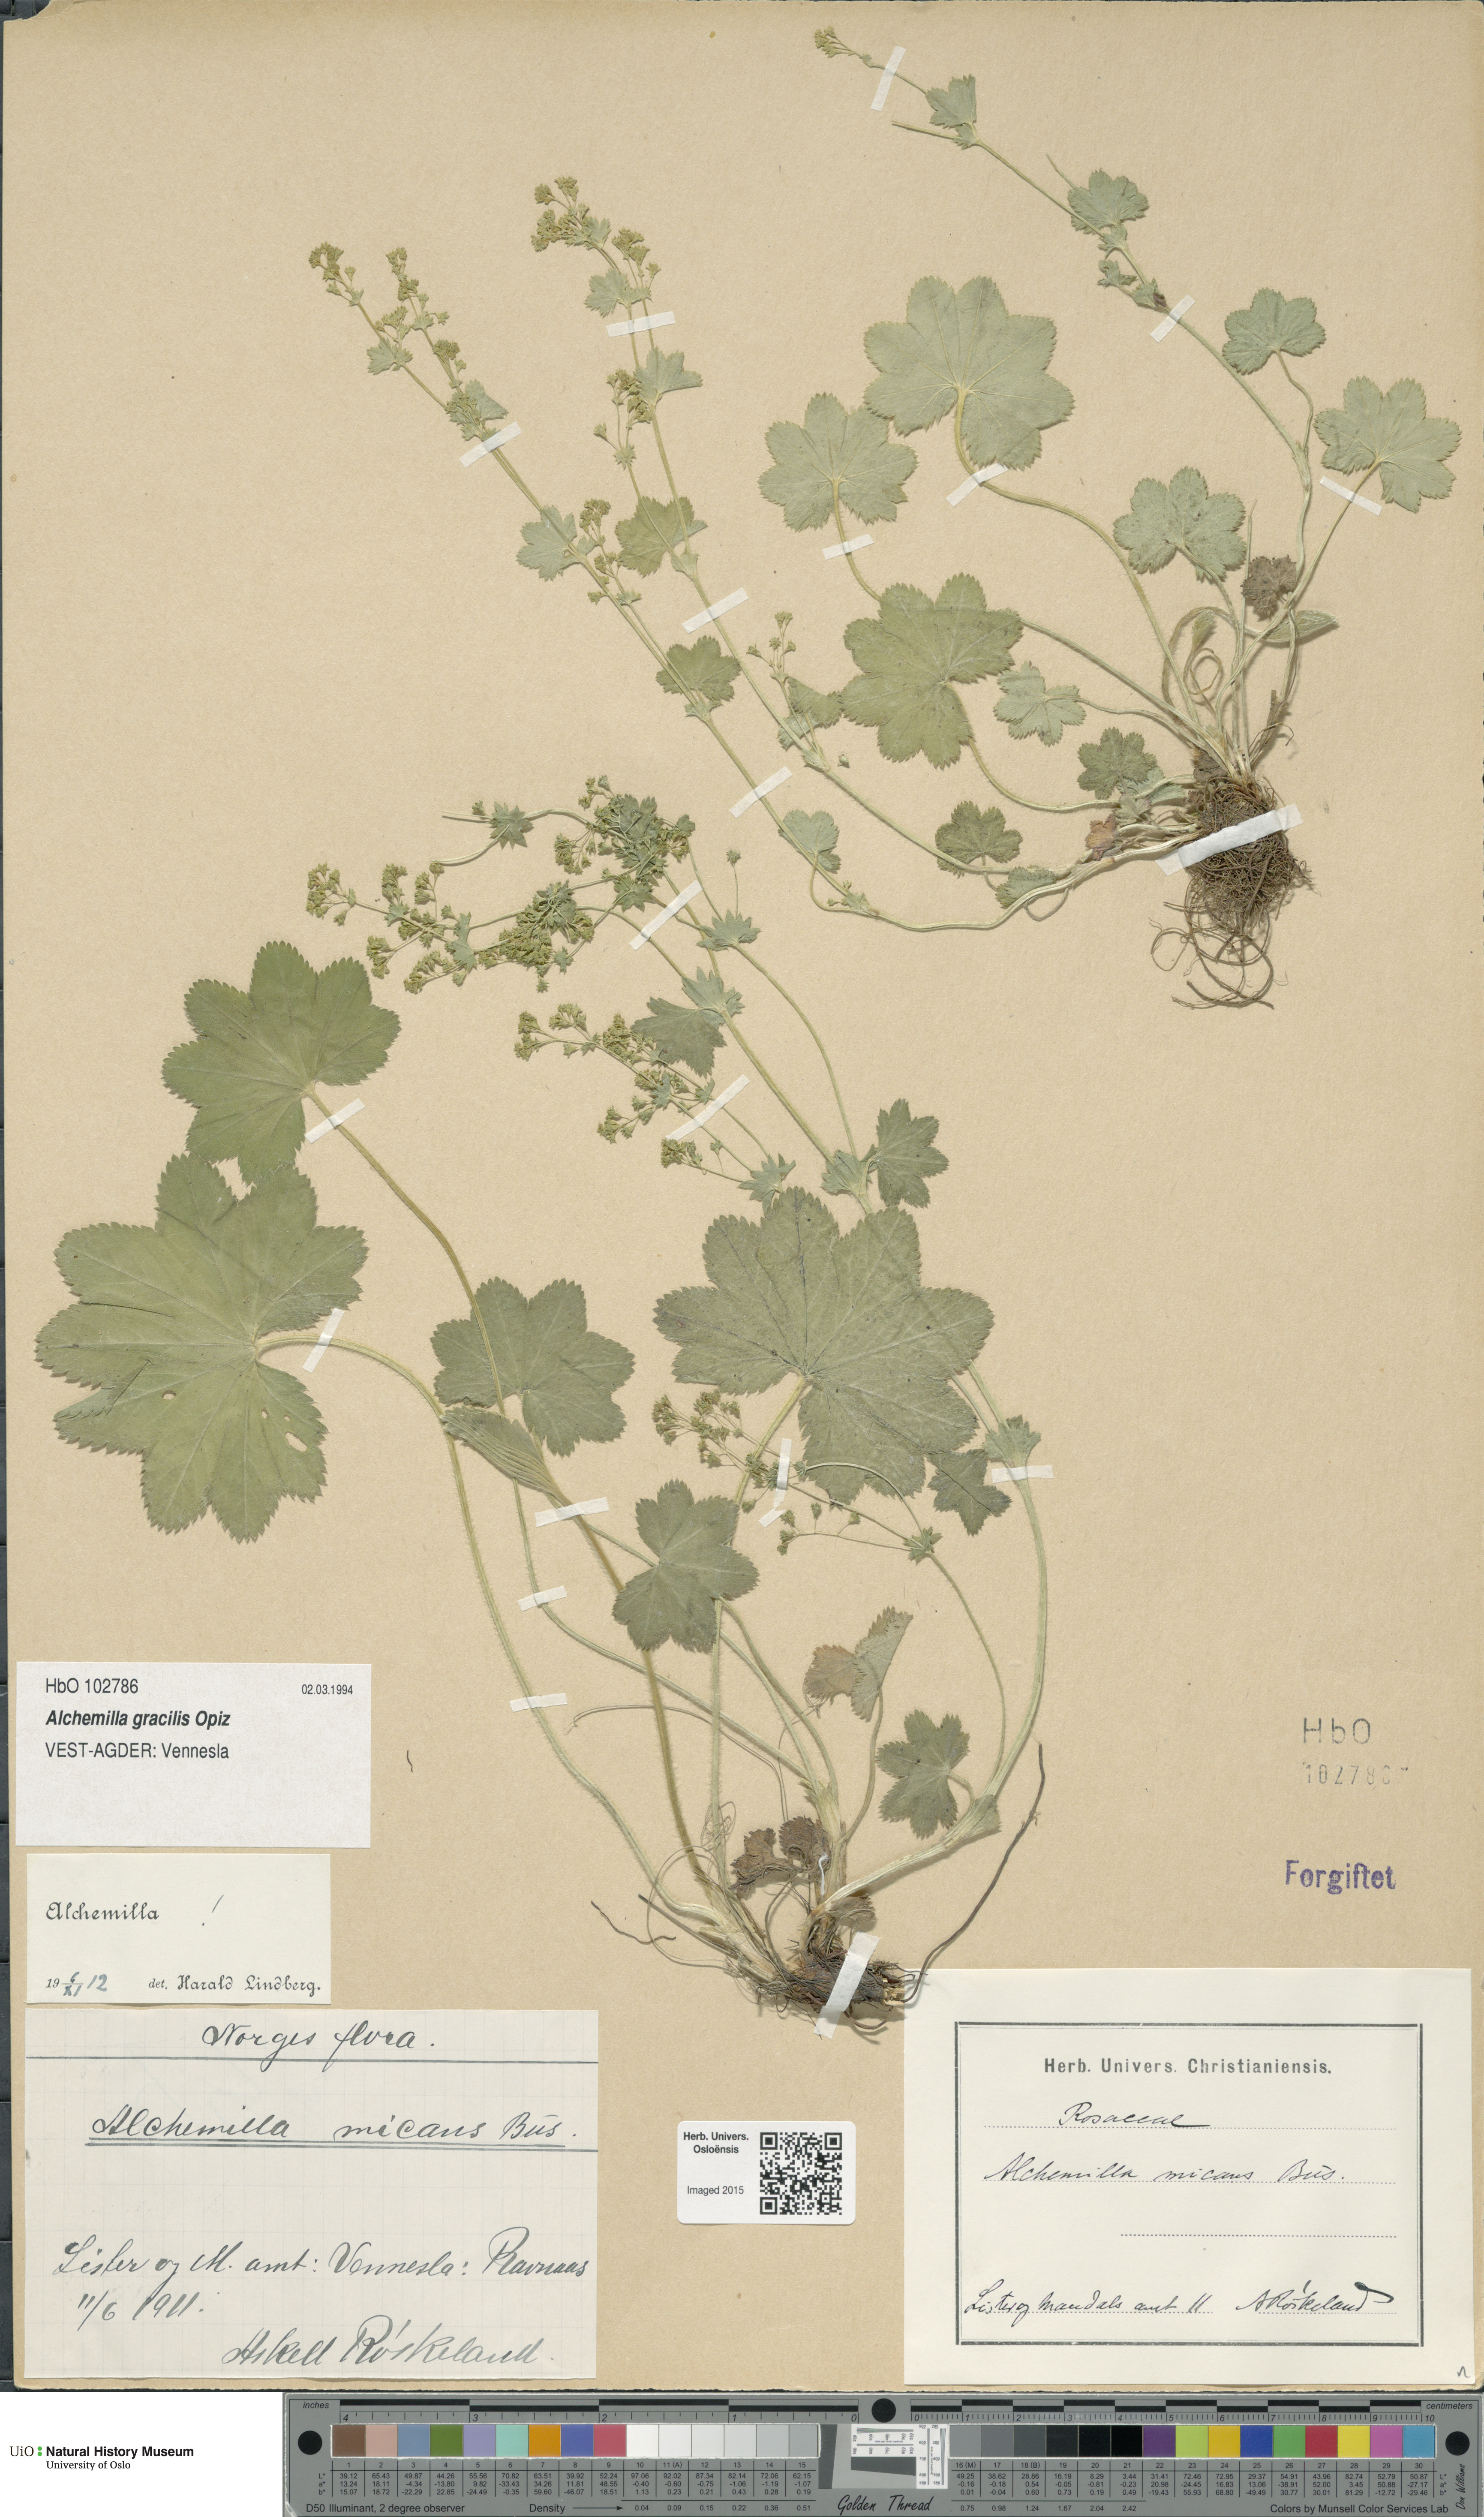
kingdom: Plantae
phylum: Tracheophyta
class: Magnoliopsida
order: Rosales
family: Rosaceae
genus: Alchemilla
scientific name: Alchemilla micans
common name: Gleaming lady's mantle
